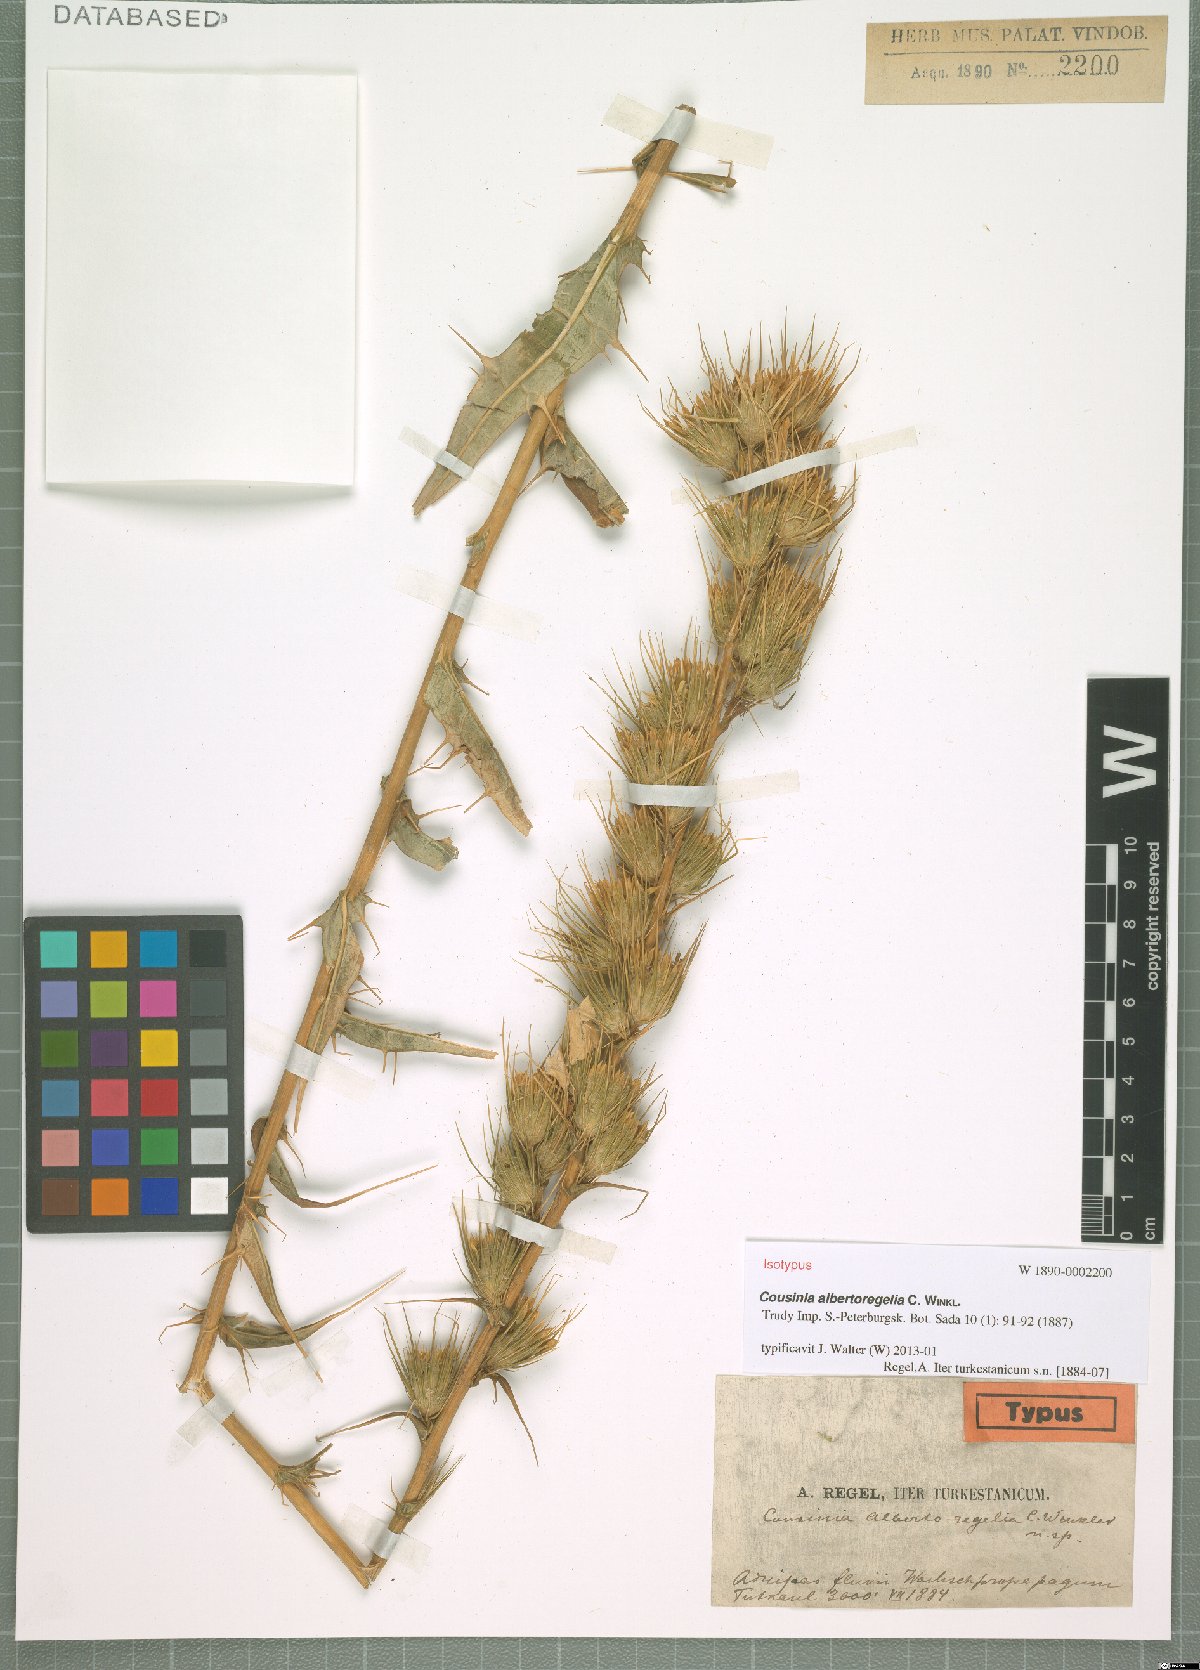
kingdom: Plantae
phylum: Tracheophyta
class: Magnoliopsida
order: Asterales
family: Asteraceae
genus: Cousinia
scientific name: Cousinia albertoregelia
